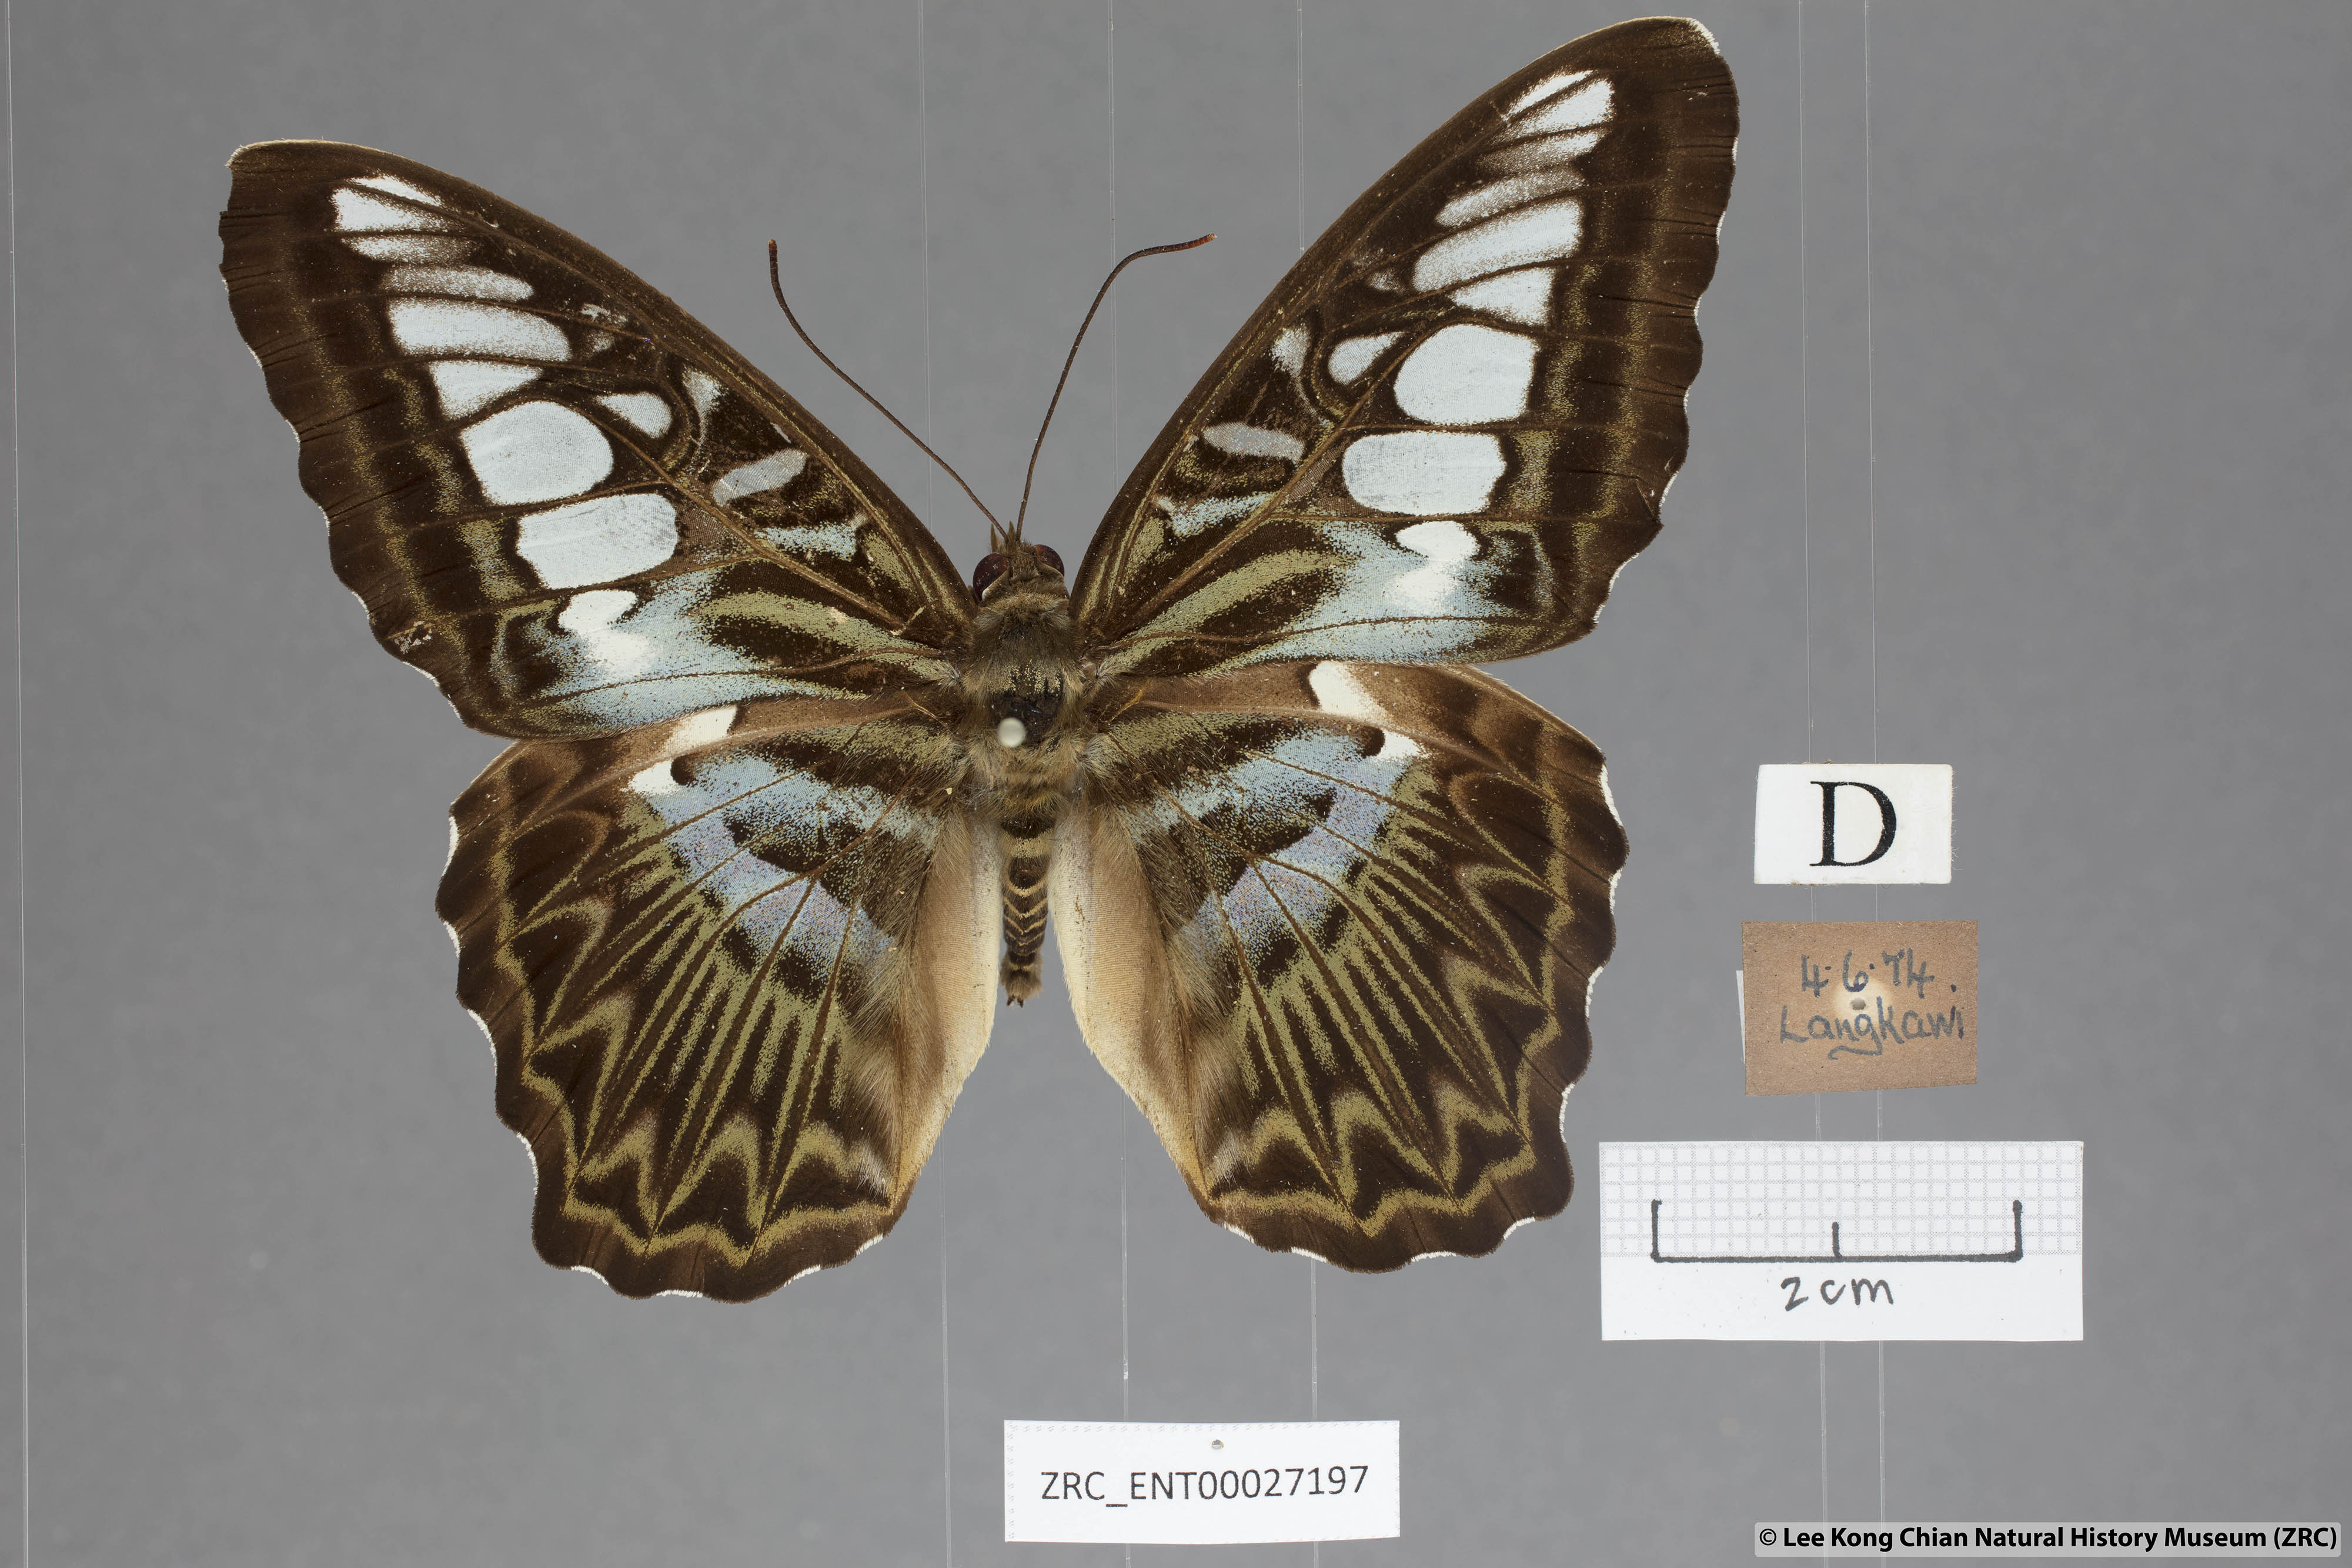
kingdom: Animalia
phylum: Arthropoda
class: Insecta
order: Lepidoptera
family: Nymphalidae
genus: Kallima
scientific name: Kallima sylvia
